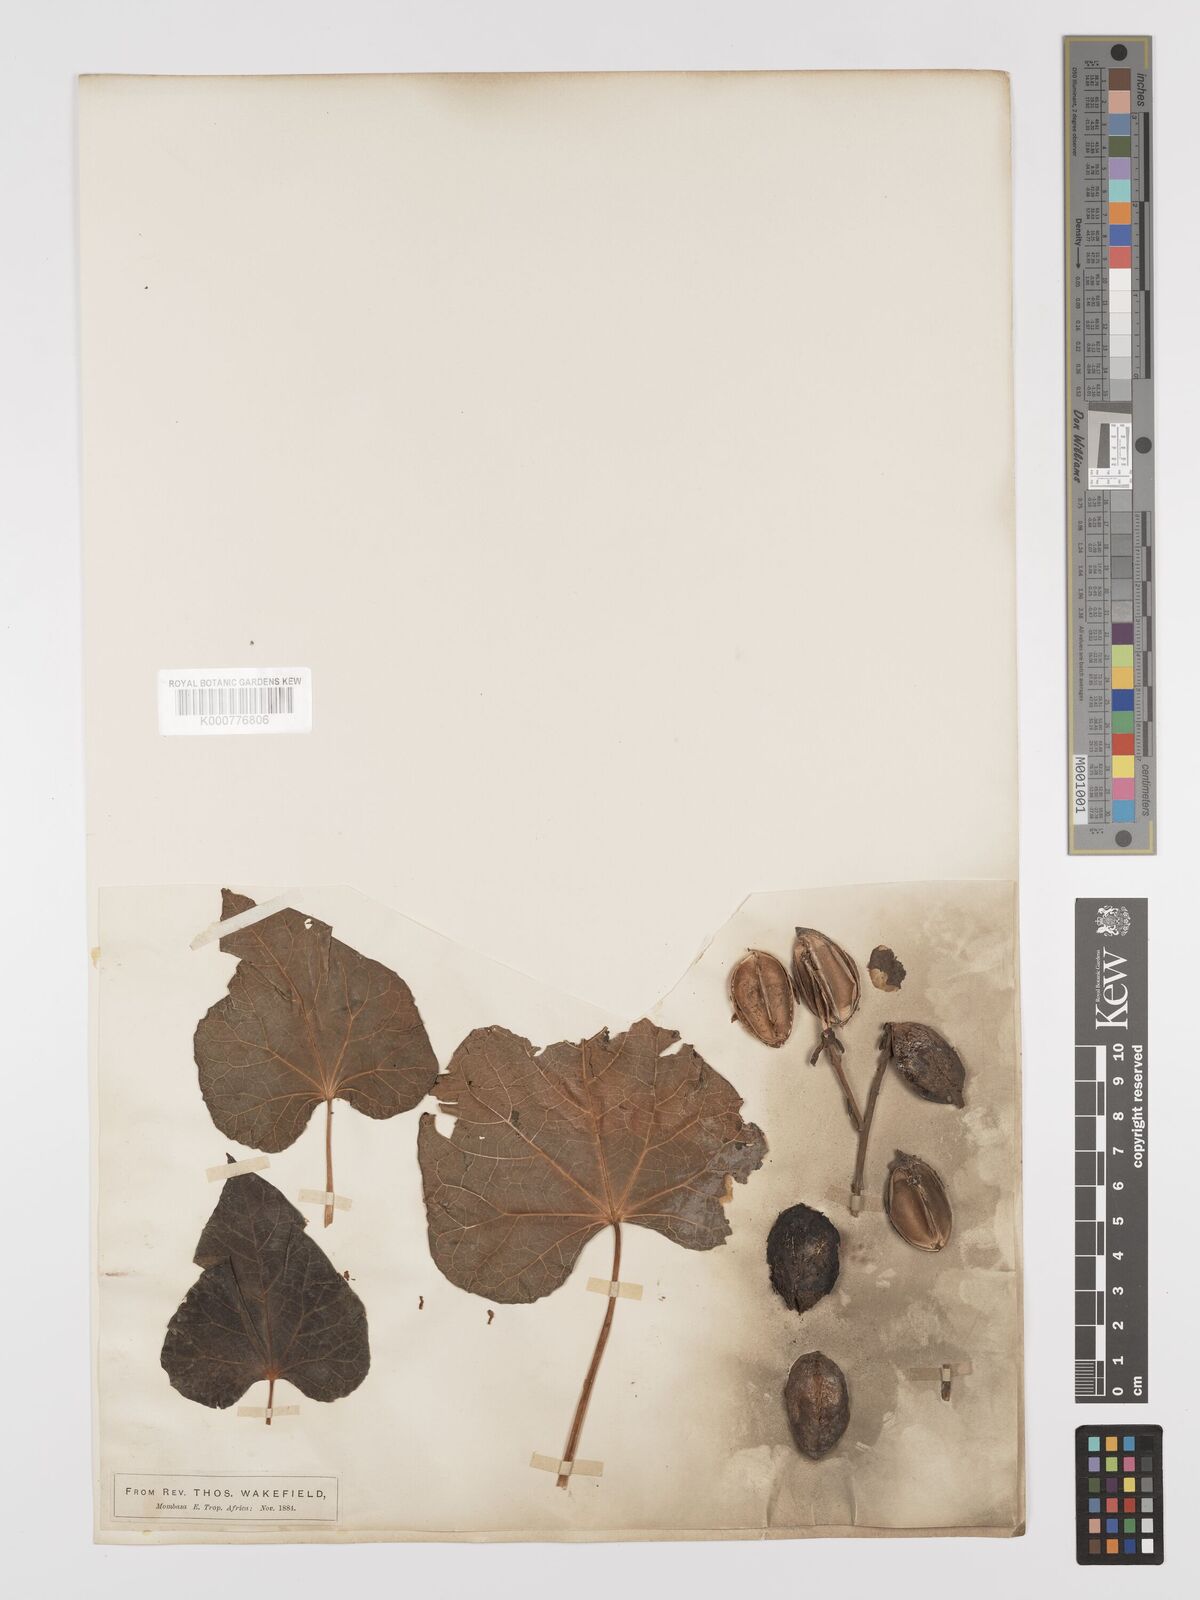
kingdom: Plantae
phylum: Tracheophyta
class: Magnoliopsida
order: Malpighiales
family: Euphorbiaceae
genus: Jatropha
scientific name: Jatropha curcas
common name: Barbados nut
